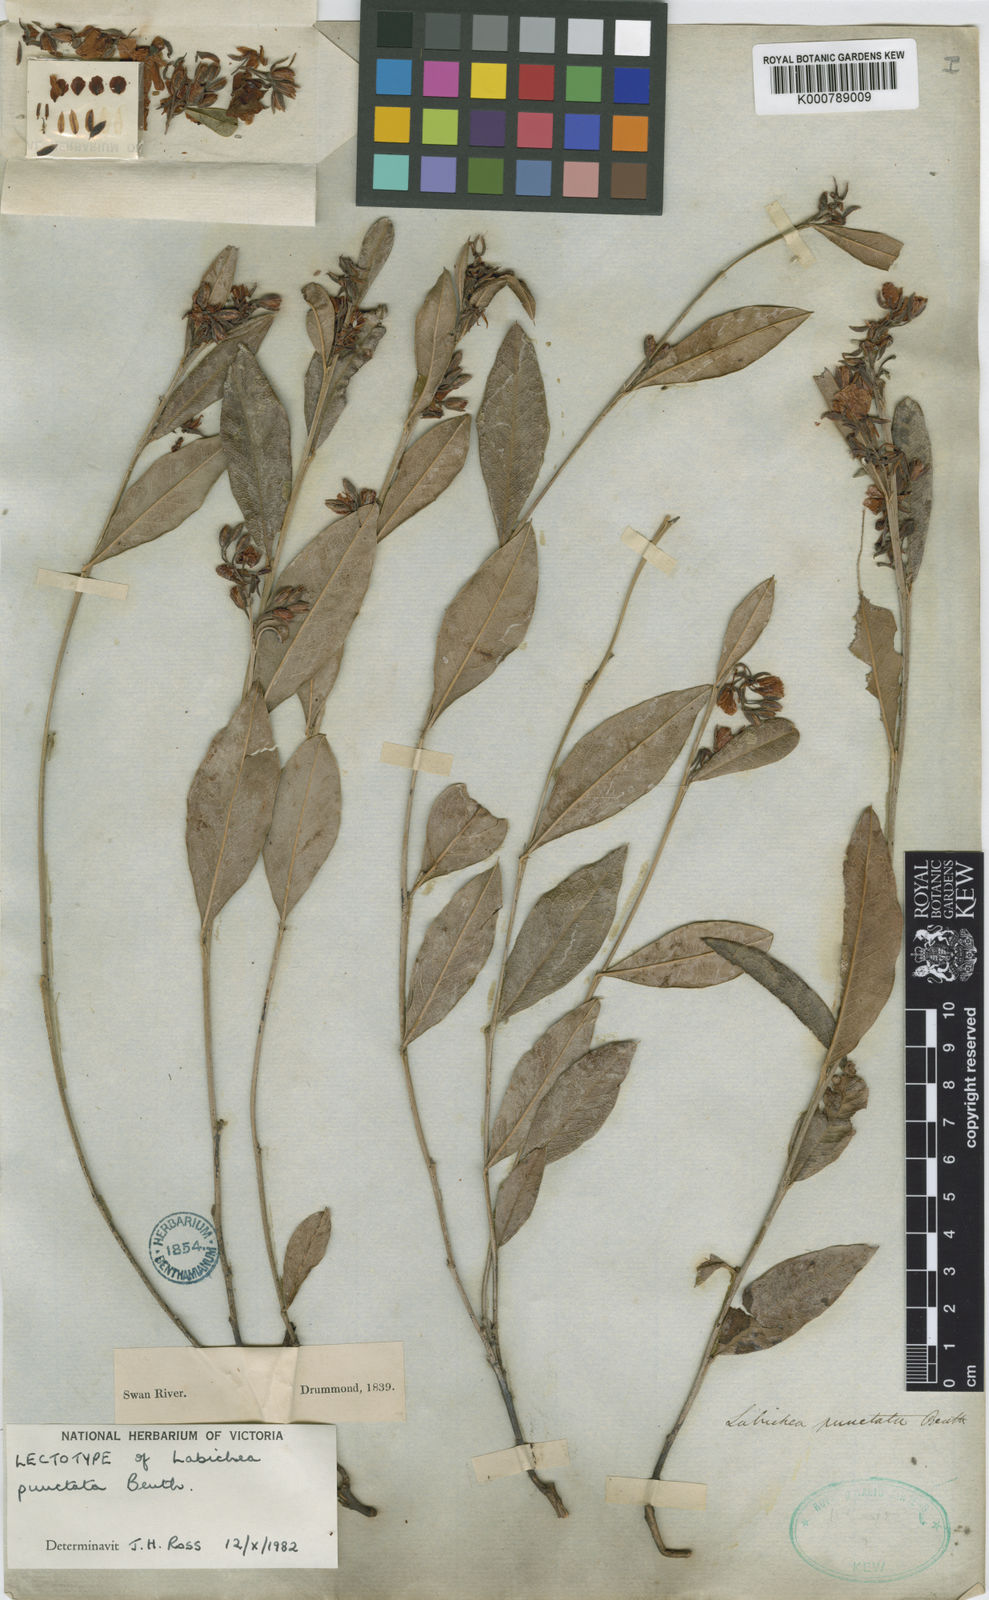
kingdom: Plantae
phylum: Tracheophyta
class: Magnoliopsida
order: Fabales
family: Fabaceae
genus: Labichea
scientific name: Labichea punctata
